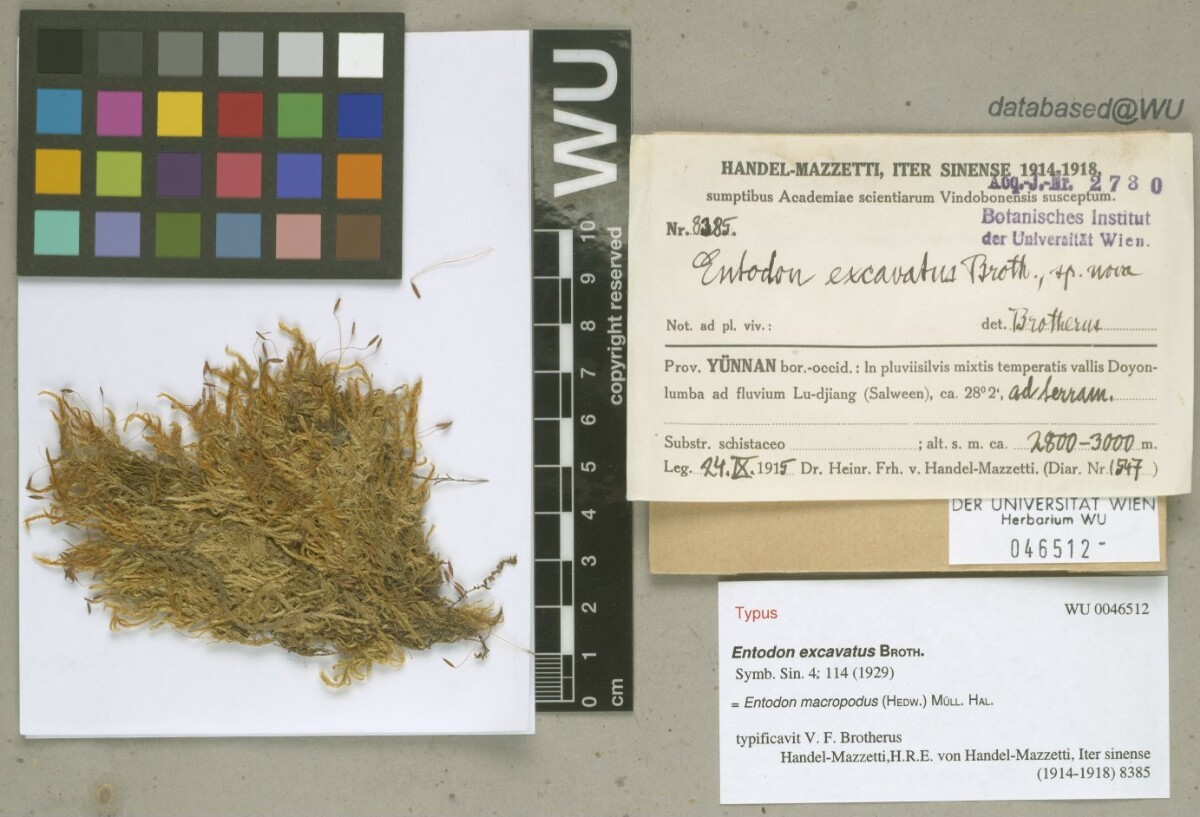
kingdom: Plantae
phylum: Bryophyta
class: Bryopsida
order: Hypnales
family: Entodontaceae
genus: Entodon
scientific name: Entodon dolichocucullatus
